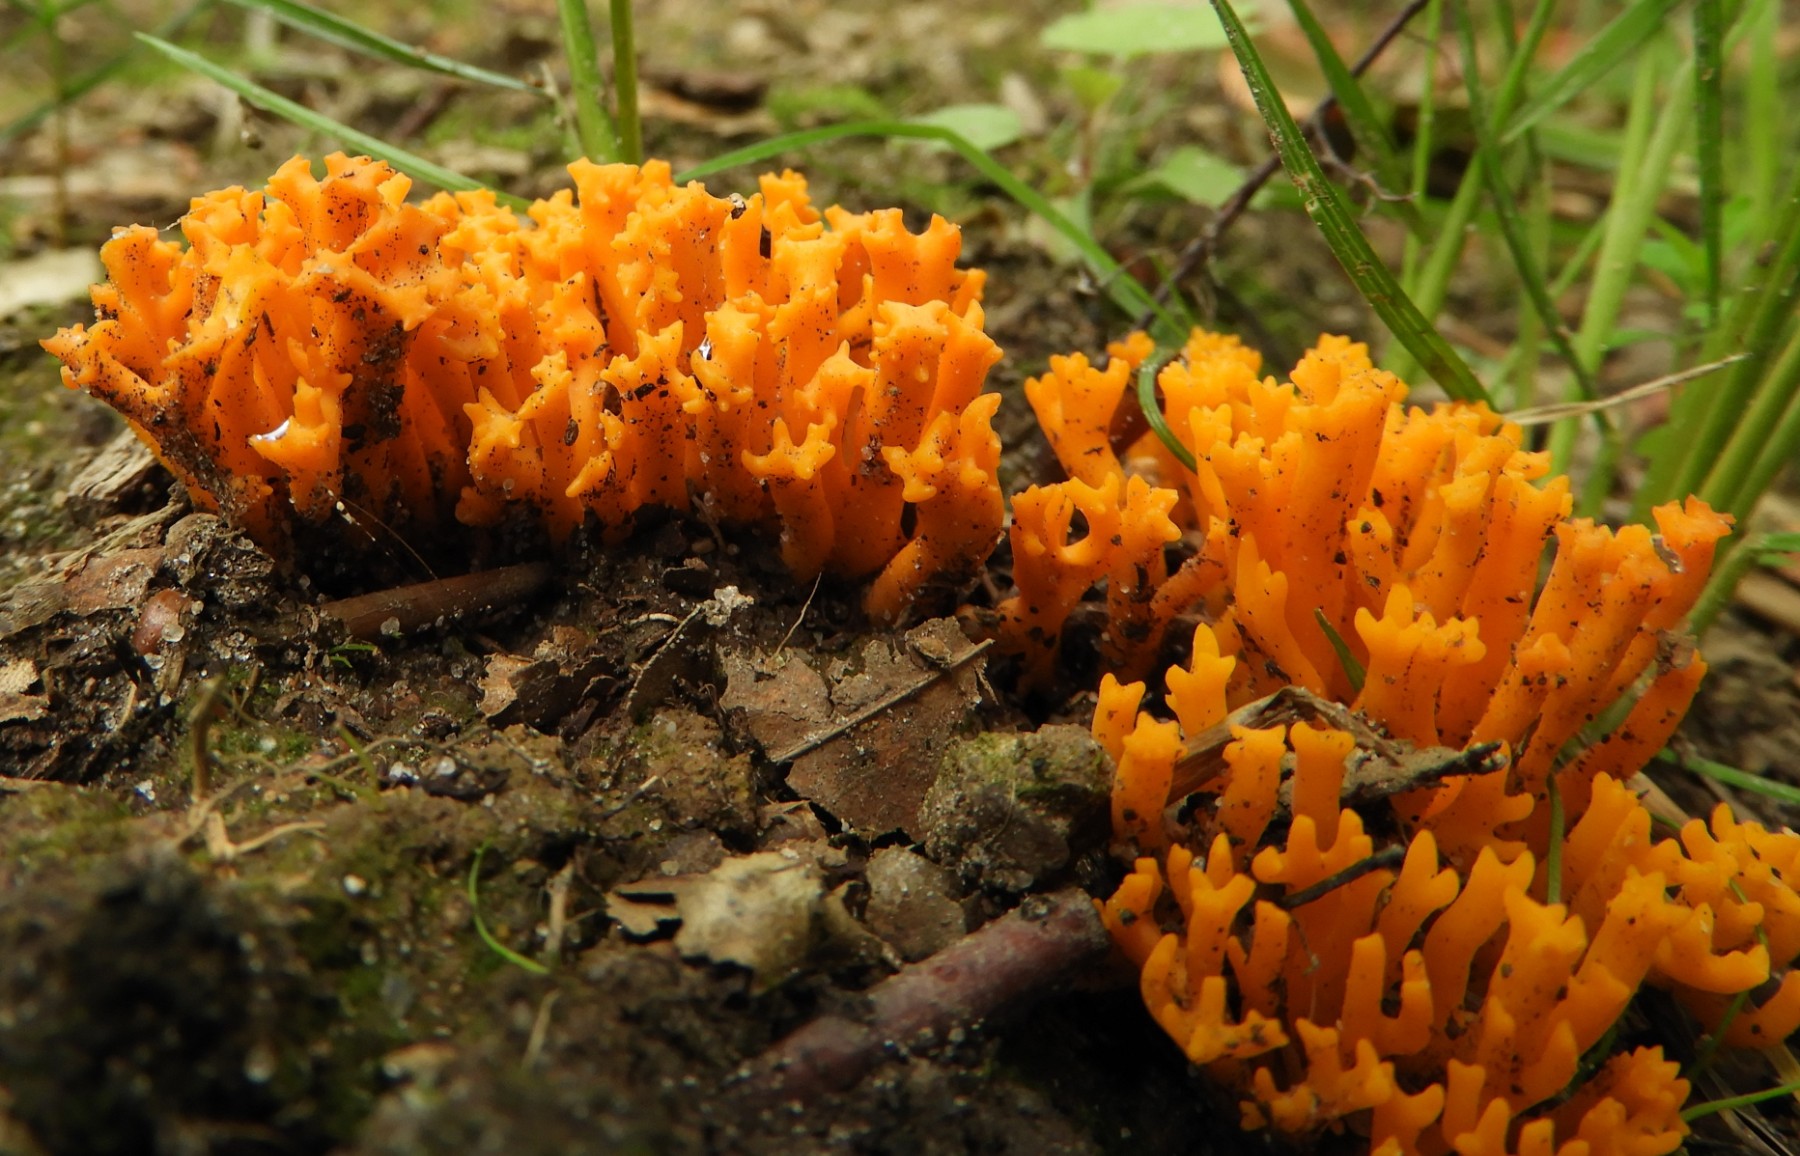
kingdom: Fungi
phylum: Basidiomycota
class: Dacrymycetes
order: Dacrymycetales
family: Dacrymycetaceae
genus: Calocera
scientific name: Calocera viscosa
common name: almindelig guldgaffel
